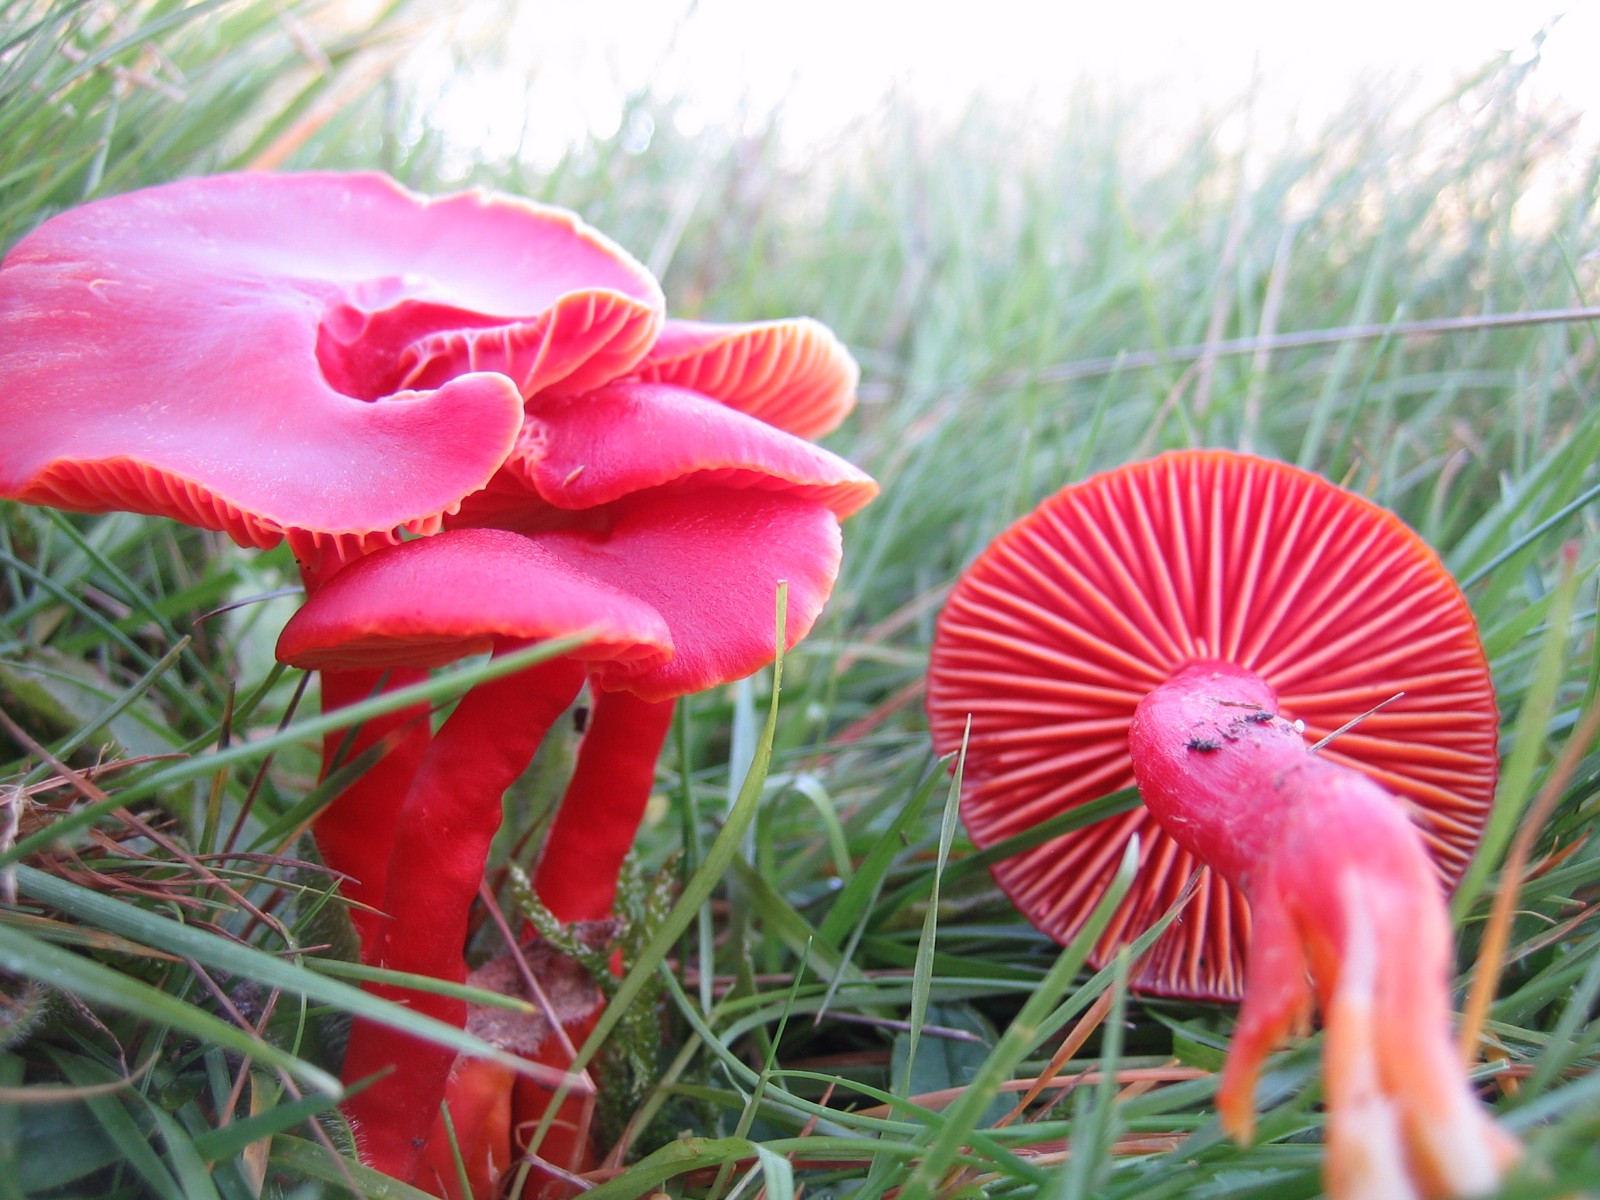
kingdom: Fungi
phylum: Basidiomycota
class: Agaricomycetes
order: Agaricales
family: Hygrophoraceae
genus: Hygrocybe
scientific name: Hygrocybe coccinea
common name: cinnober-vokshat
